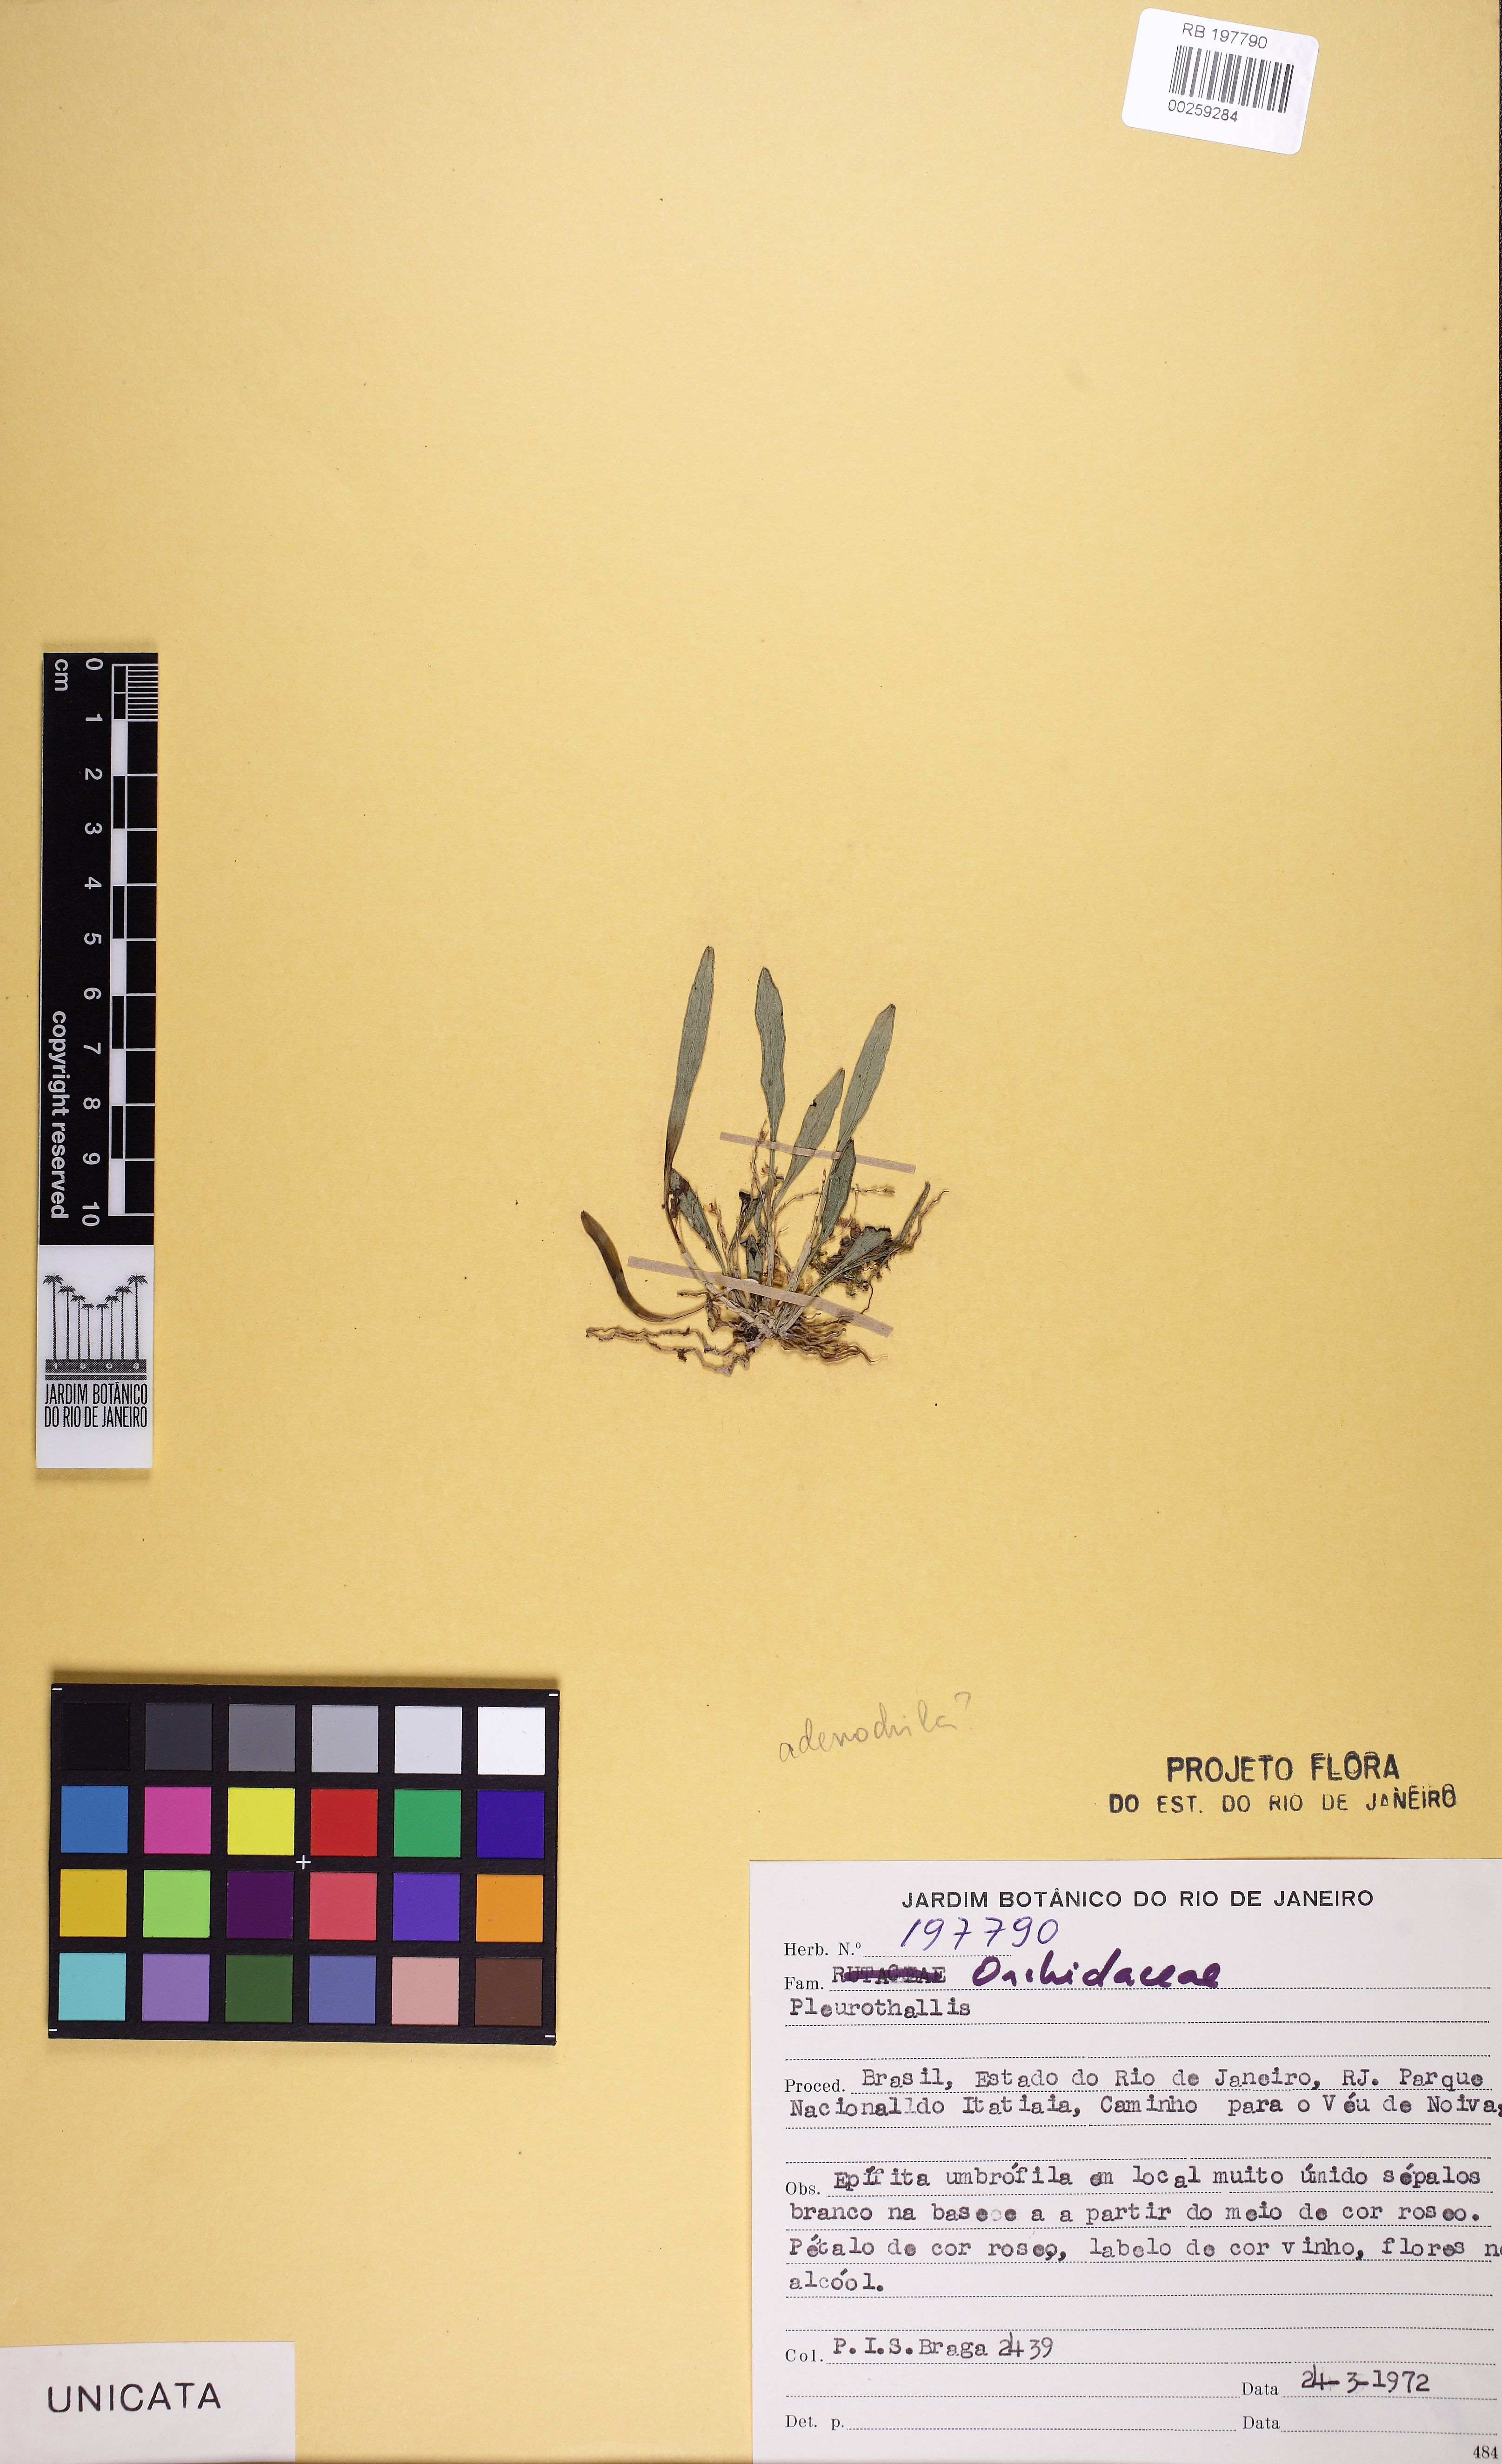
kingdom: Plantae
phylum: Tracheophyta
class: Liliopsida
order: Asparagales
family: Orchidaceae
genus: Anathallis
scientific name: Anathallis adenochila
